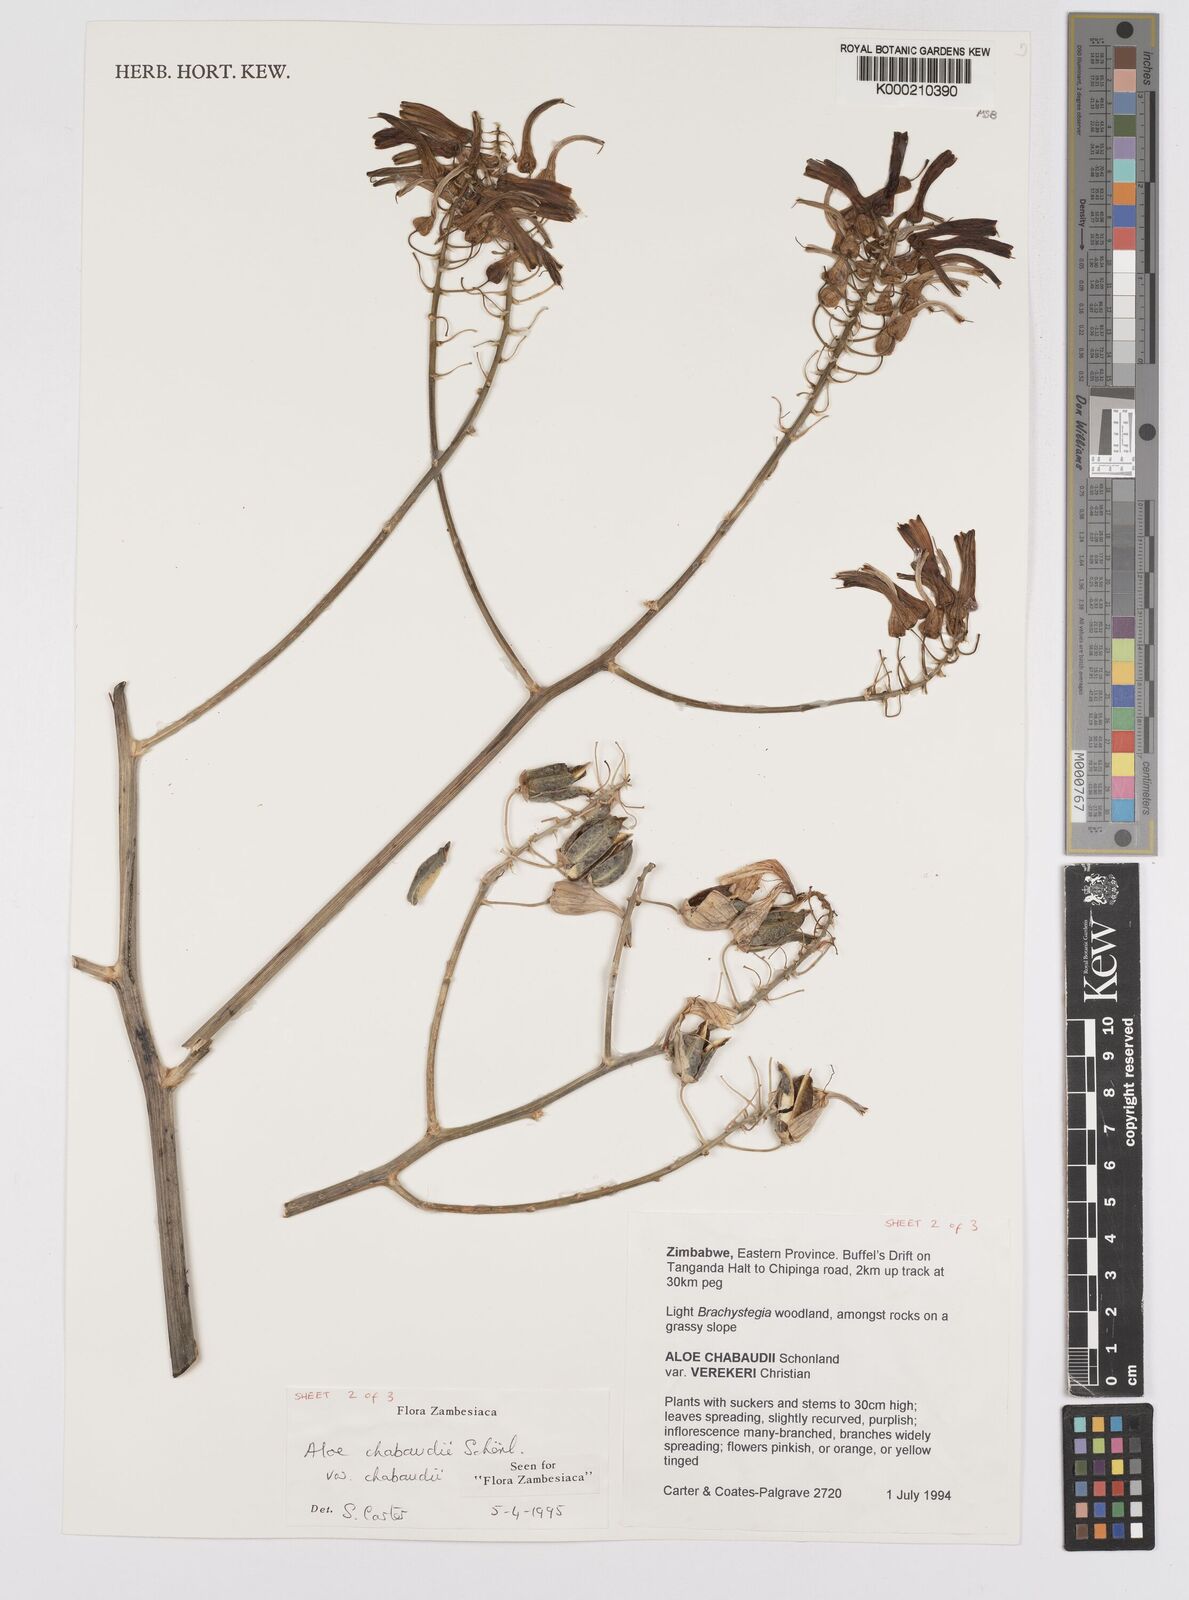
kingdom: Plantae
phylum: Tracheophyta
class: Liliopsida
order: Asparagales
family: Asphodelaceae
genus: Aloe
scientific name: Aloe chabaudii
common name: Chabaud's aloe
